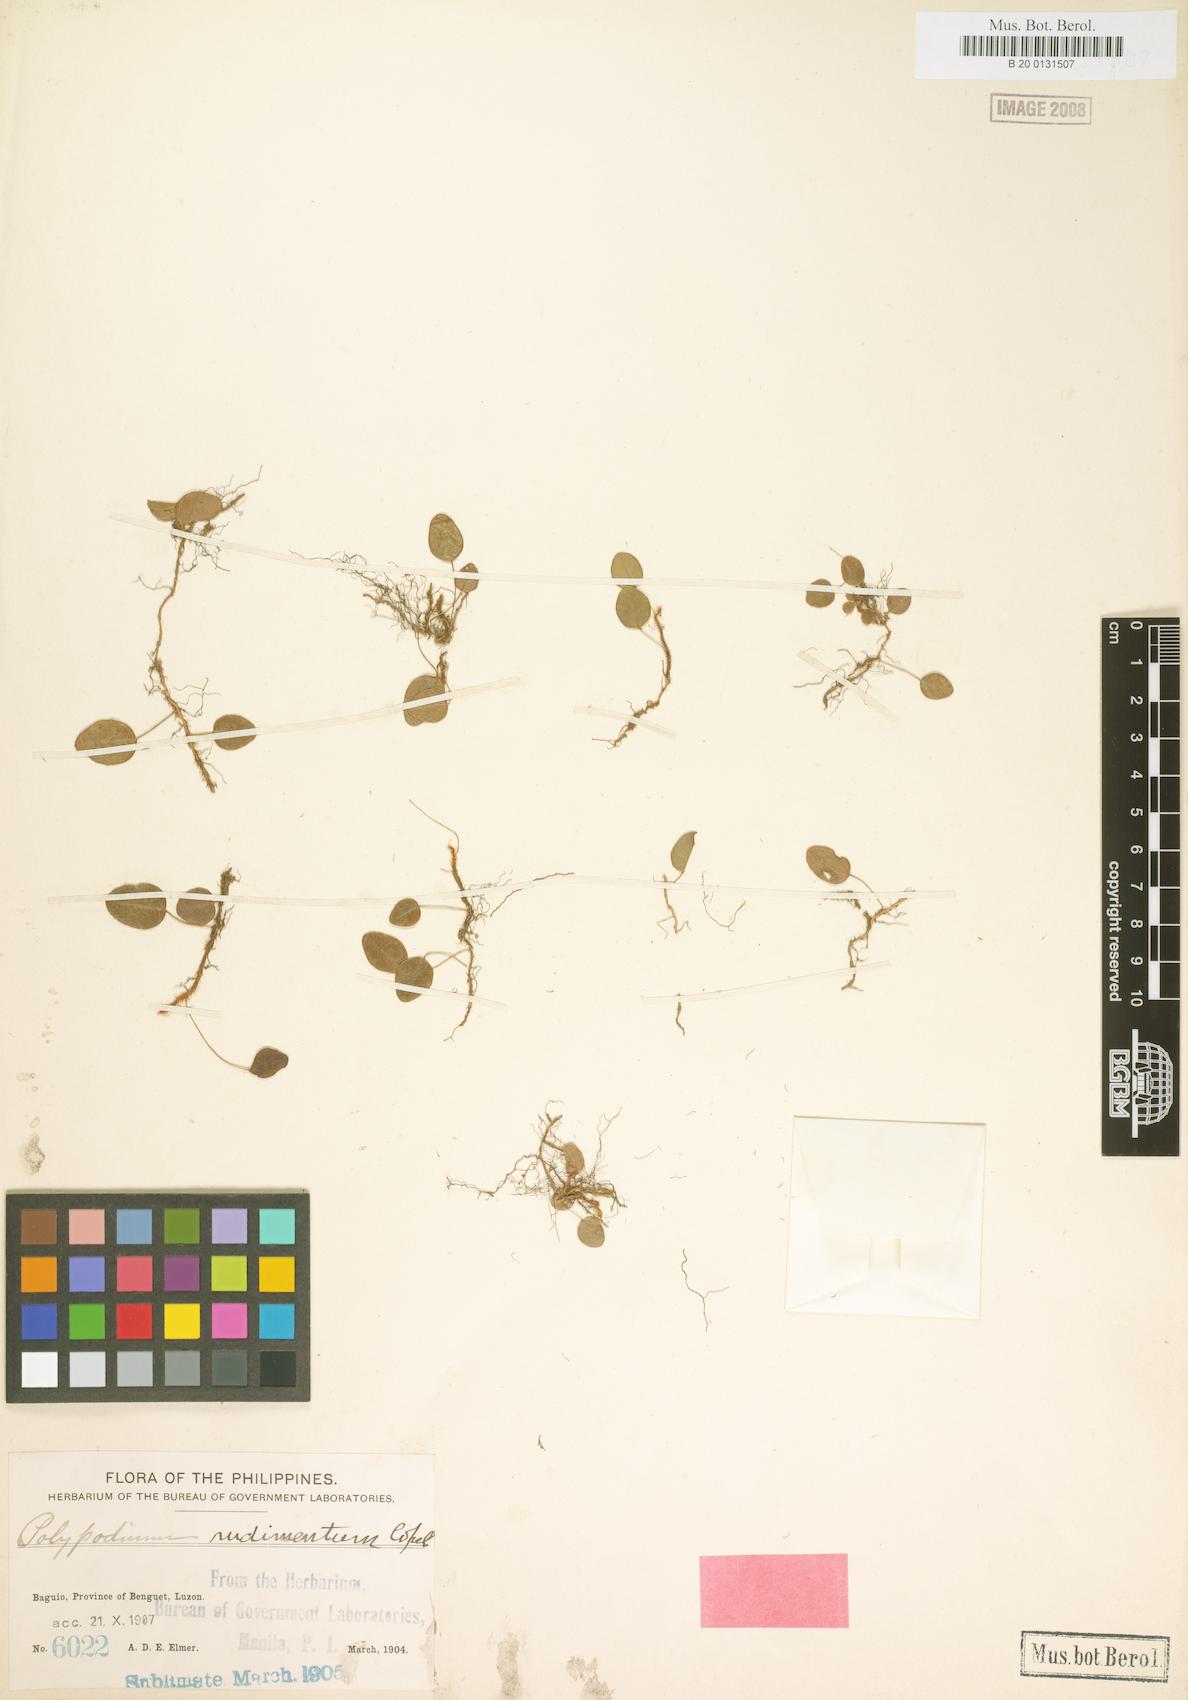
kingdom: Plantae
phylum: Tracheophyta
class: Polypodiopsida
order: Polypodiales
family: Polypodiaceae
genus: Selliguea
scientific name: Selliguea oodes
